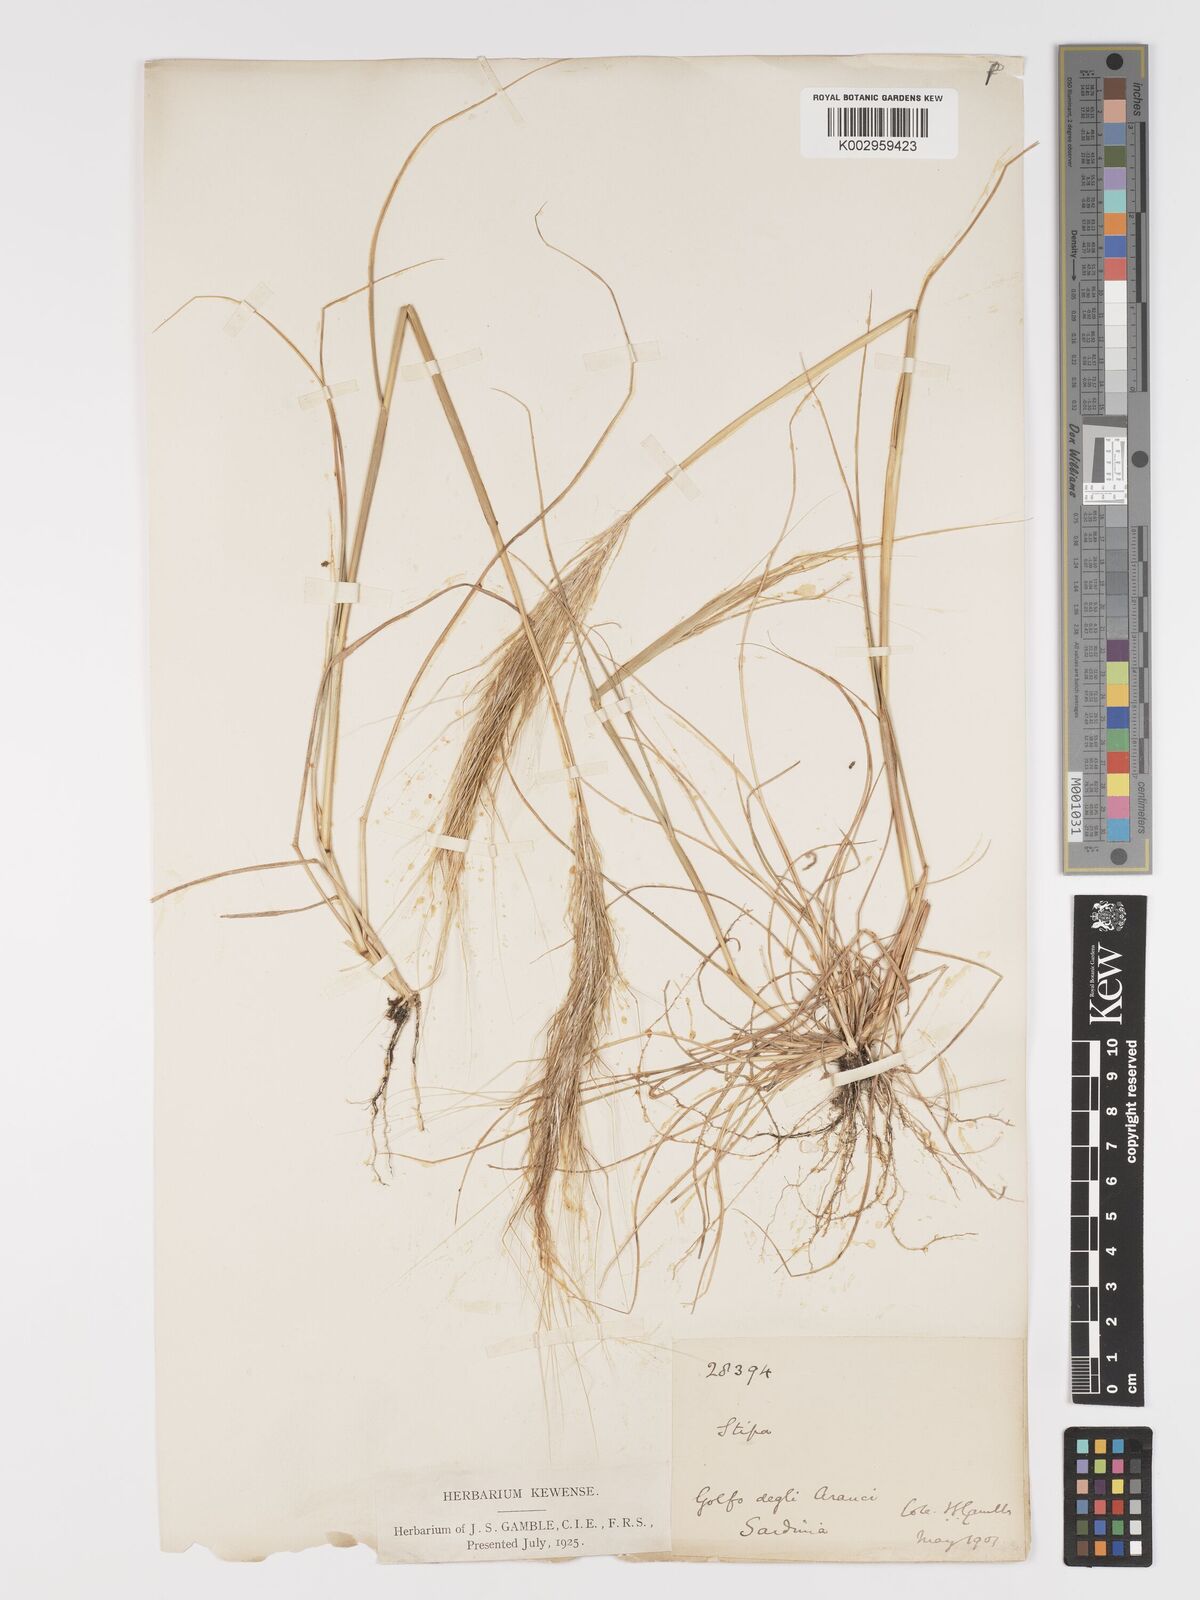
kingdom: Plantae
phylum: Tracheophyta
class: Liliopsida
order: Poales
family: Poaceae
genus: Stipa
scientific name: Stipa
